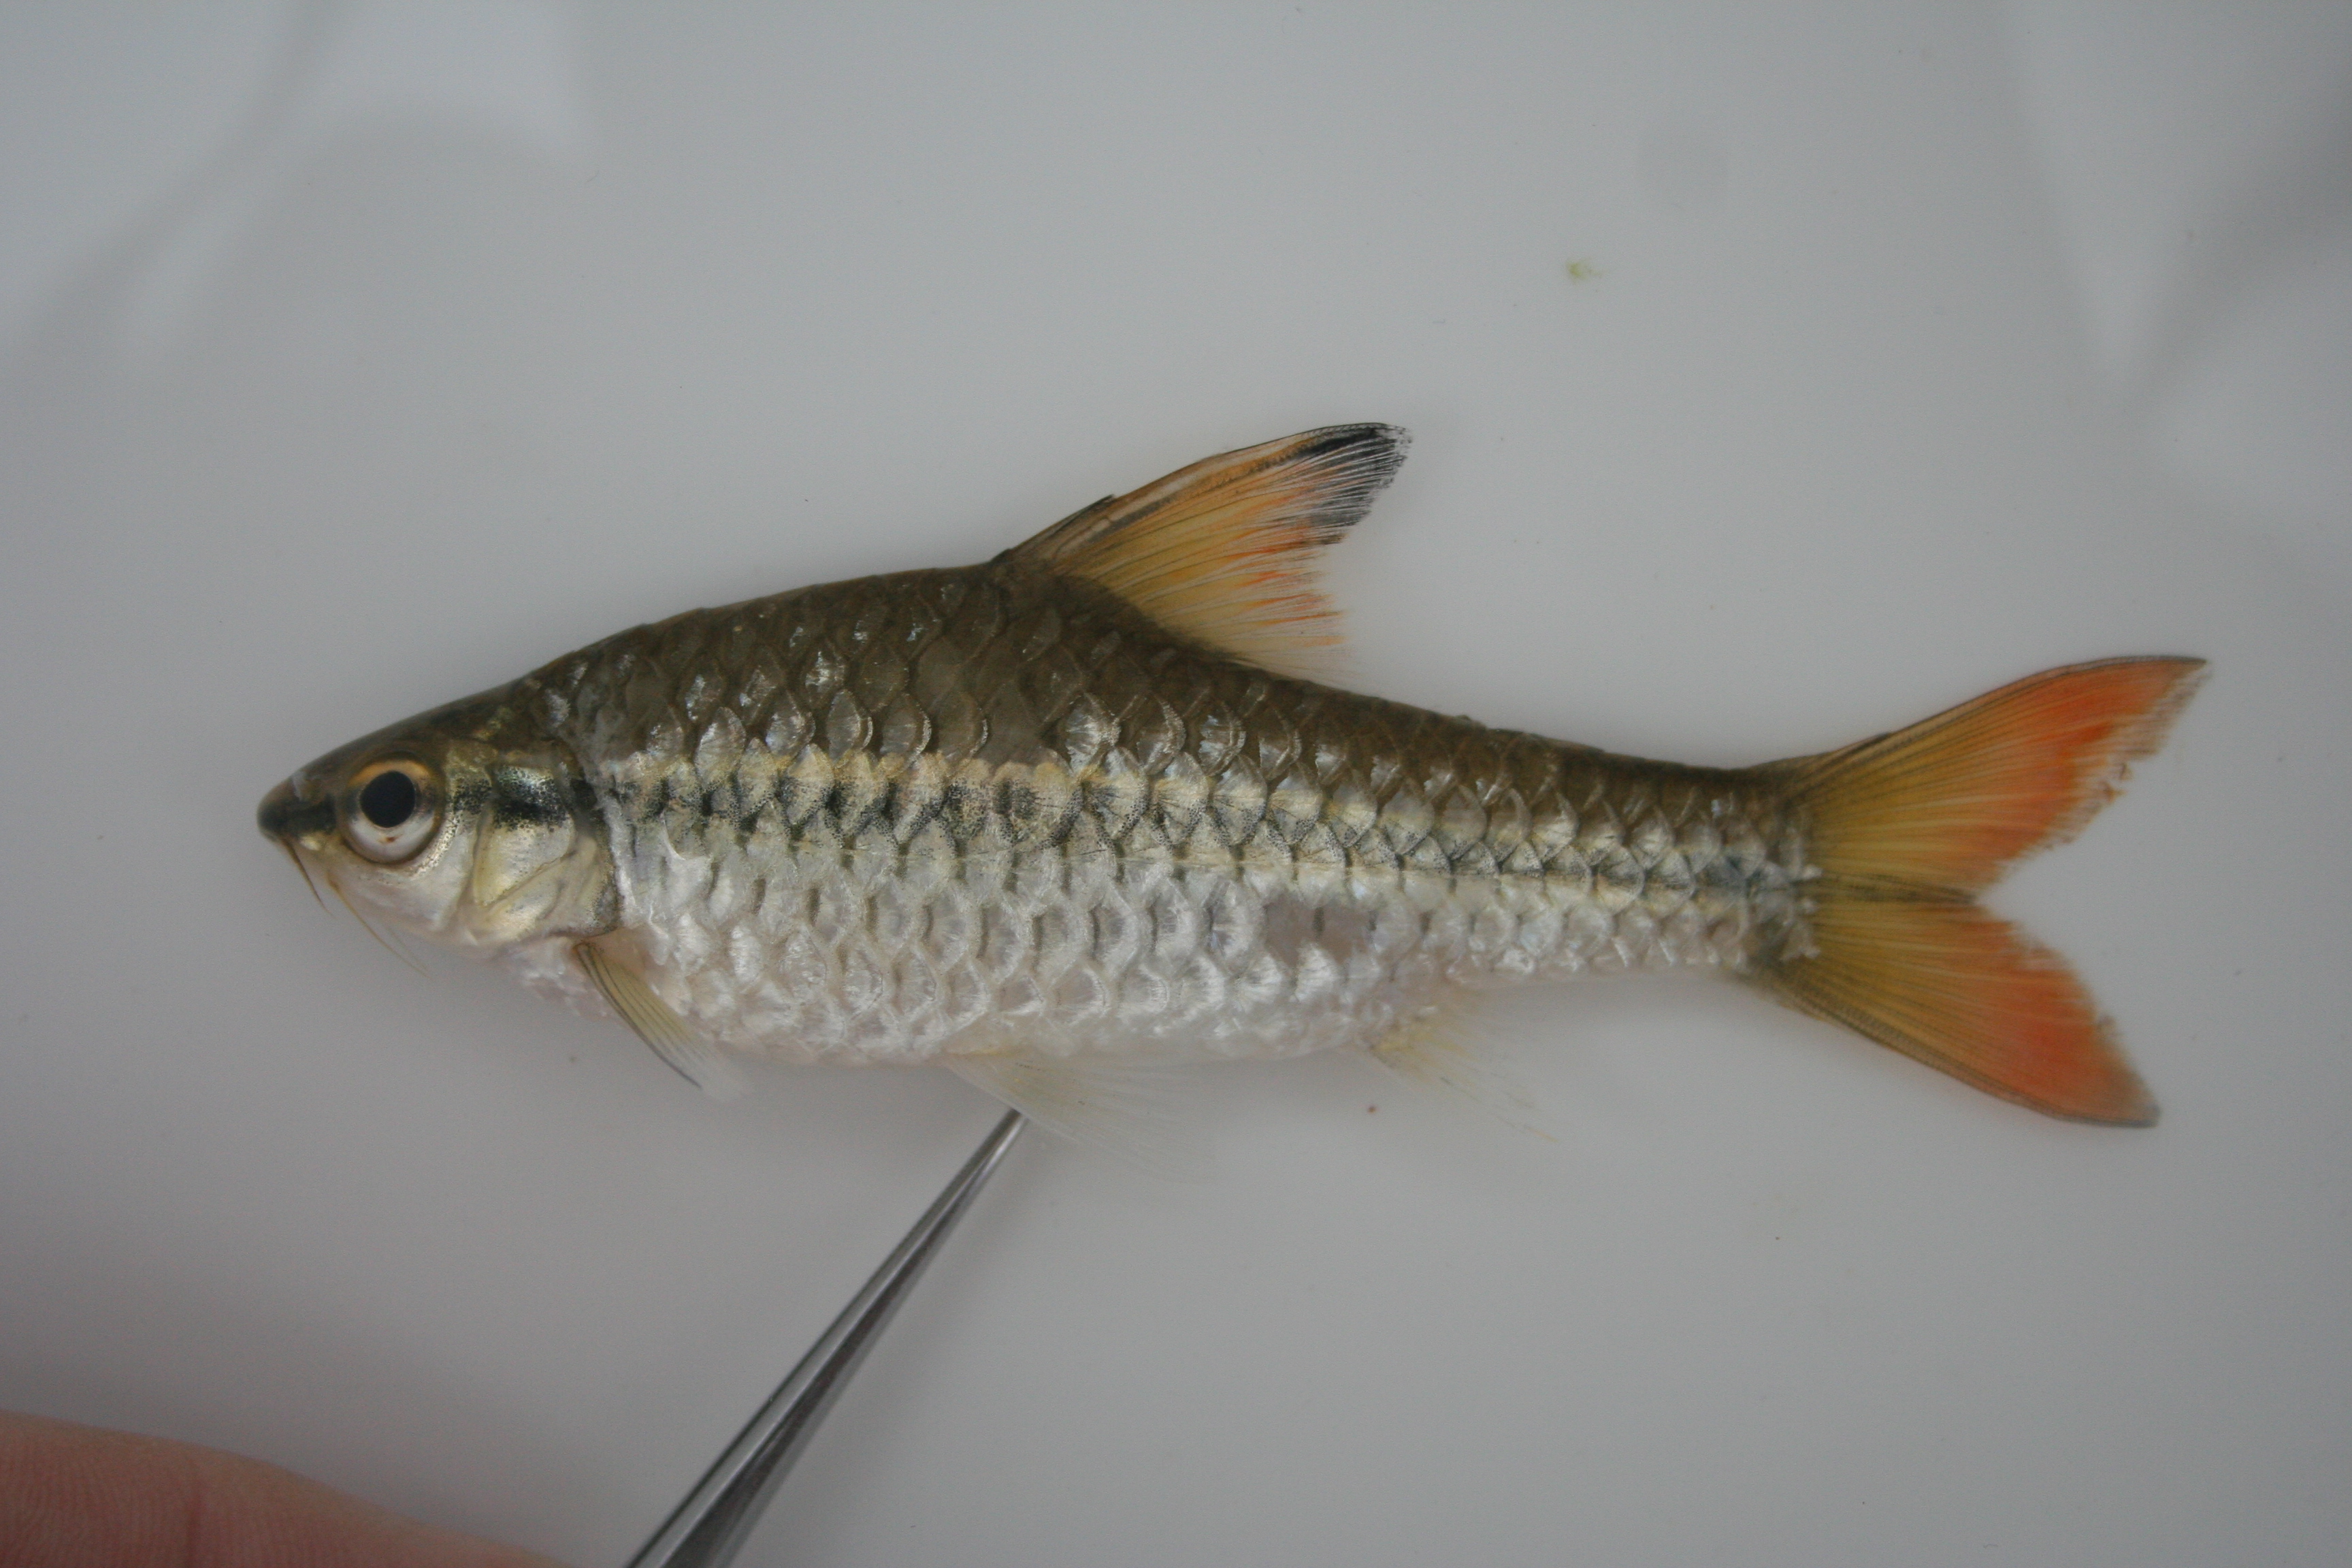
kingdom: Animalia
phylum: Chordata
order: Cypriniformes
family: Cyprinidae
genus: Enteromius
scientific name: Enteromius holotaenia
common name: Spotscale barb
